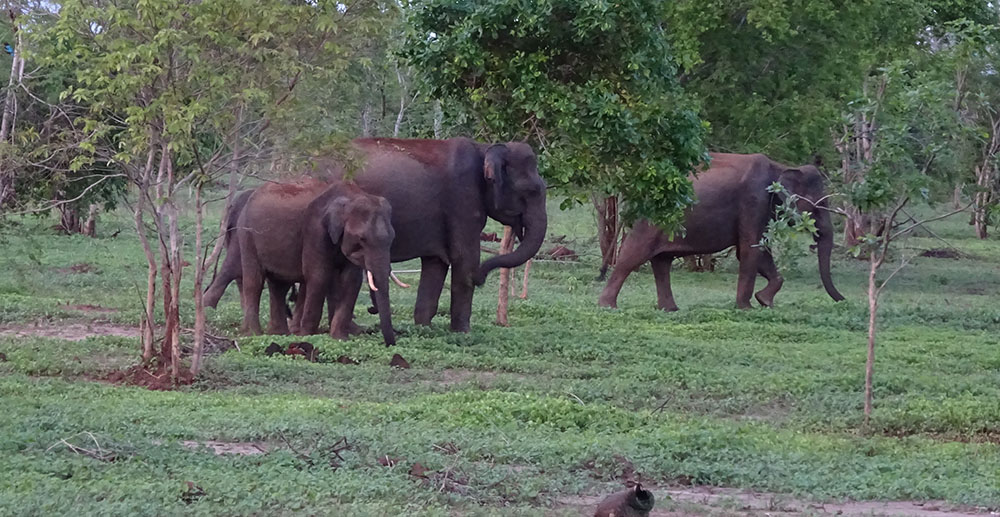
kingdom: Animalia
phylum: Chordata
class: Mammalia
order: Proboscidea
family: Elephantidae
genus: Elephas
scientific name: Elephas maximus
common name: Asian elephant
